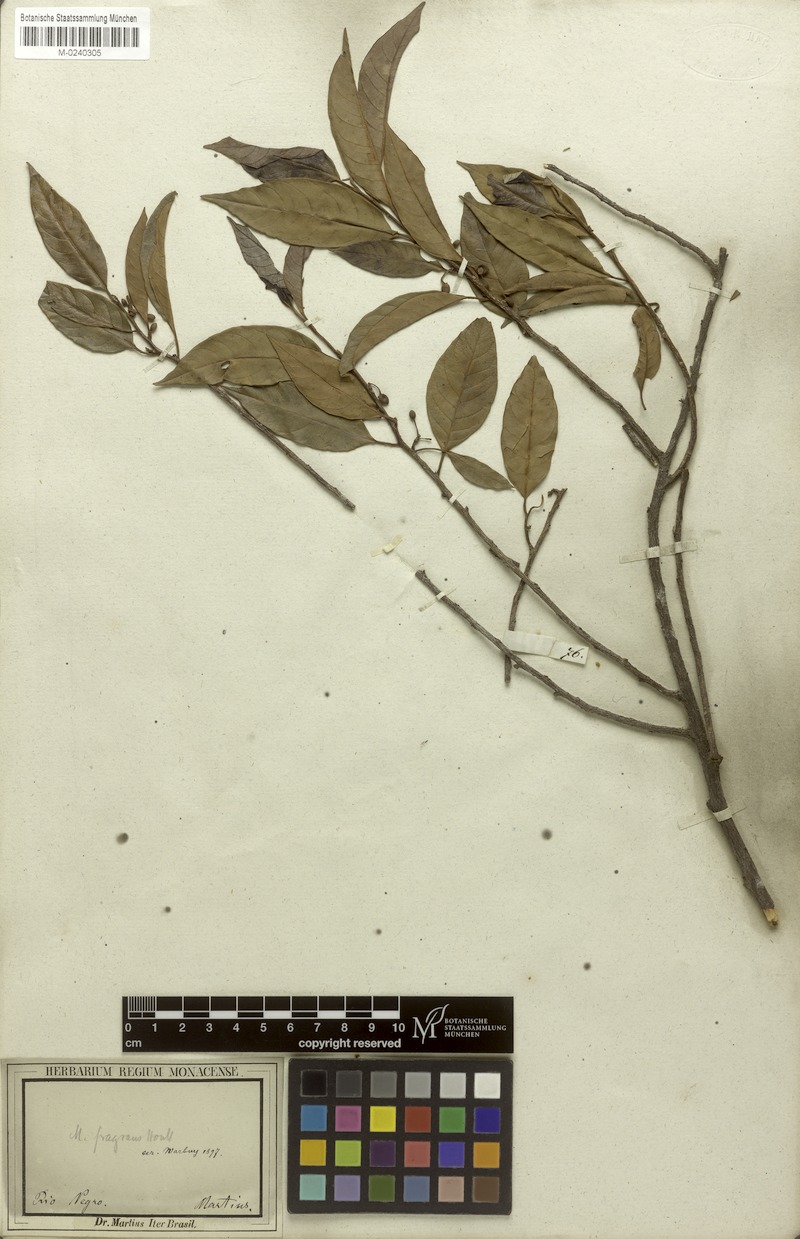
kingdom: Plantae
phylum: Tracheophyta
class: Magnoliopsida
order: Magnoliales
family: Myristicaceae
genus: Myristica
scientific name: Myristica fragrans
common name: Nutmeg
